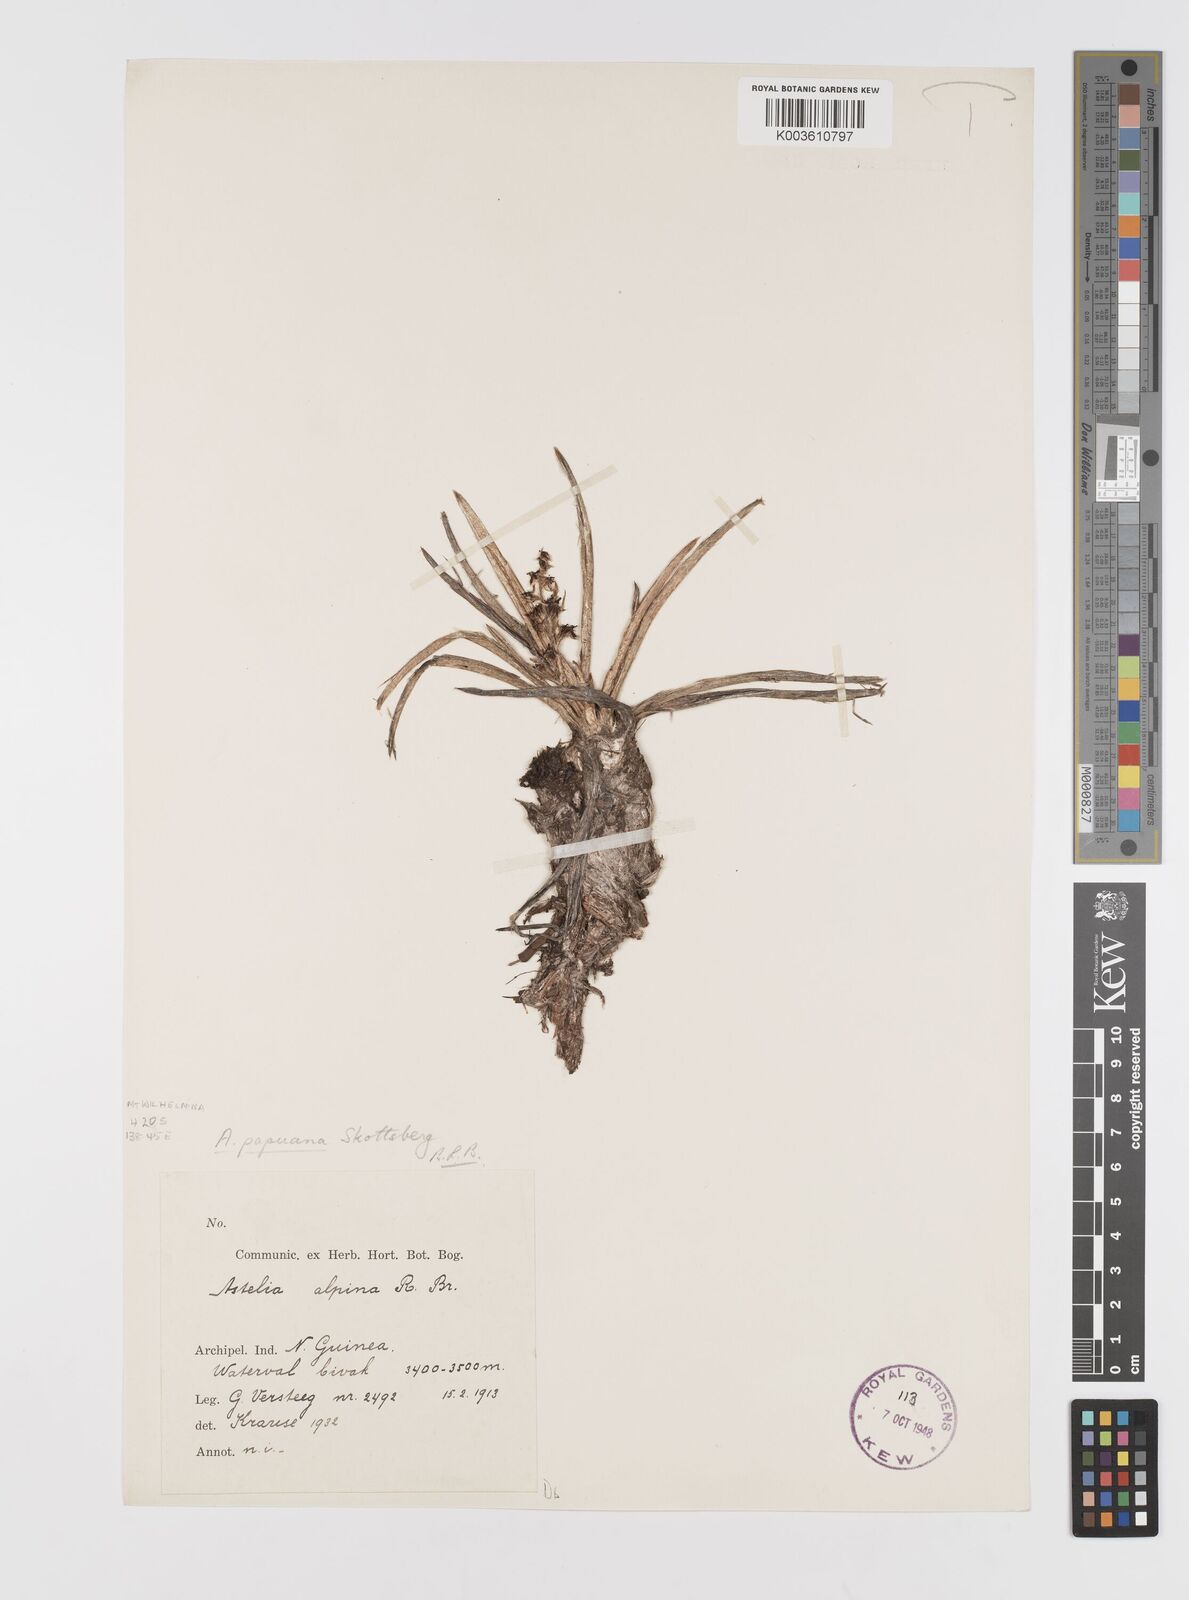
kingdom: Plantae
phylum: Tracheophyta
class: Liliopsida
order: Asparagales
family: Asteliaceae
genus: Astelia
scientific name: Astelia papuana
